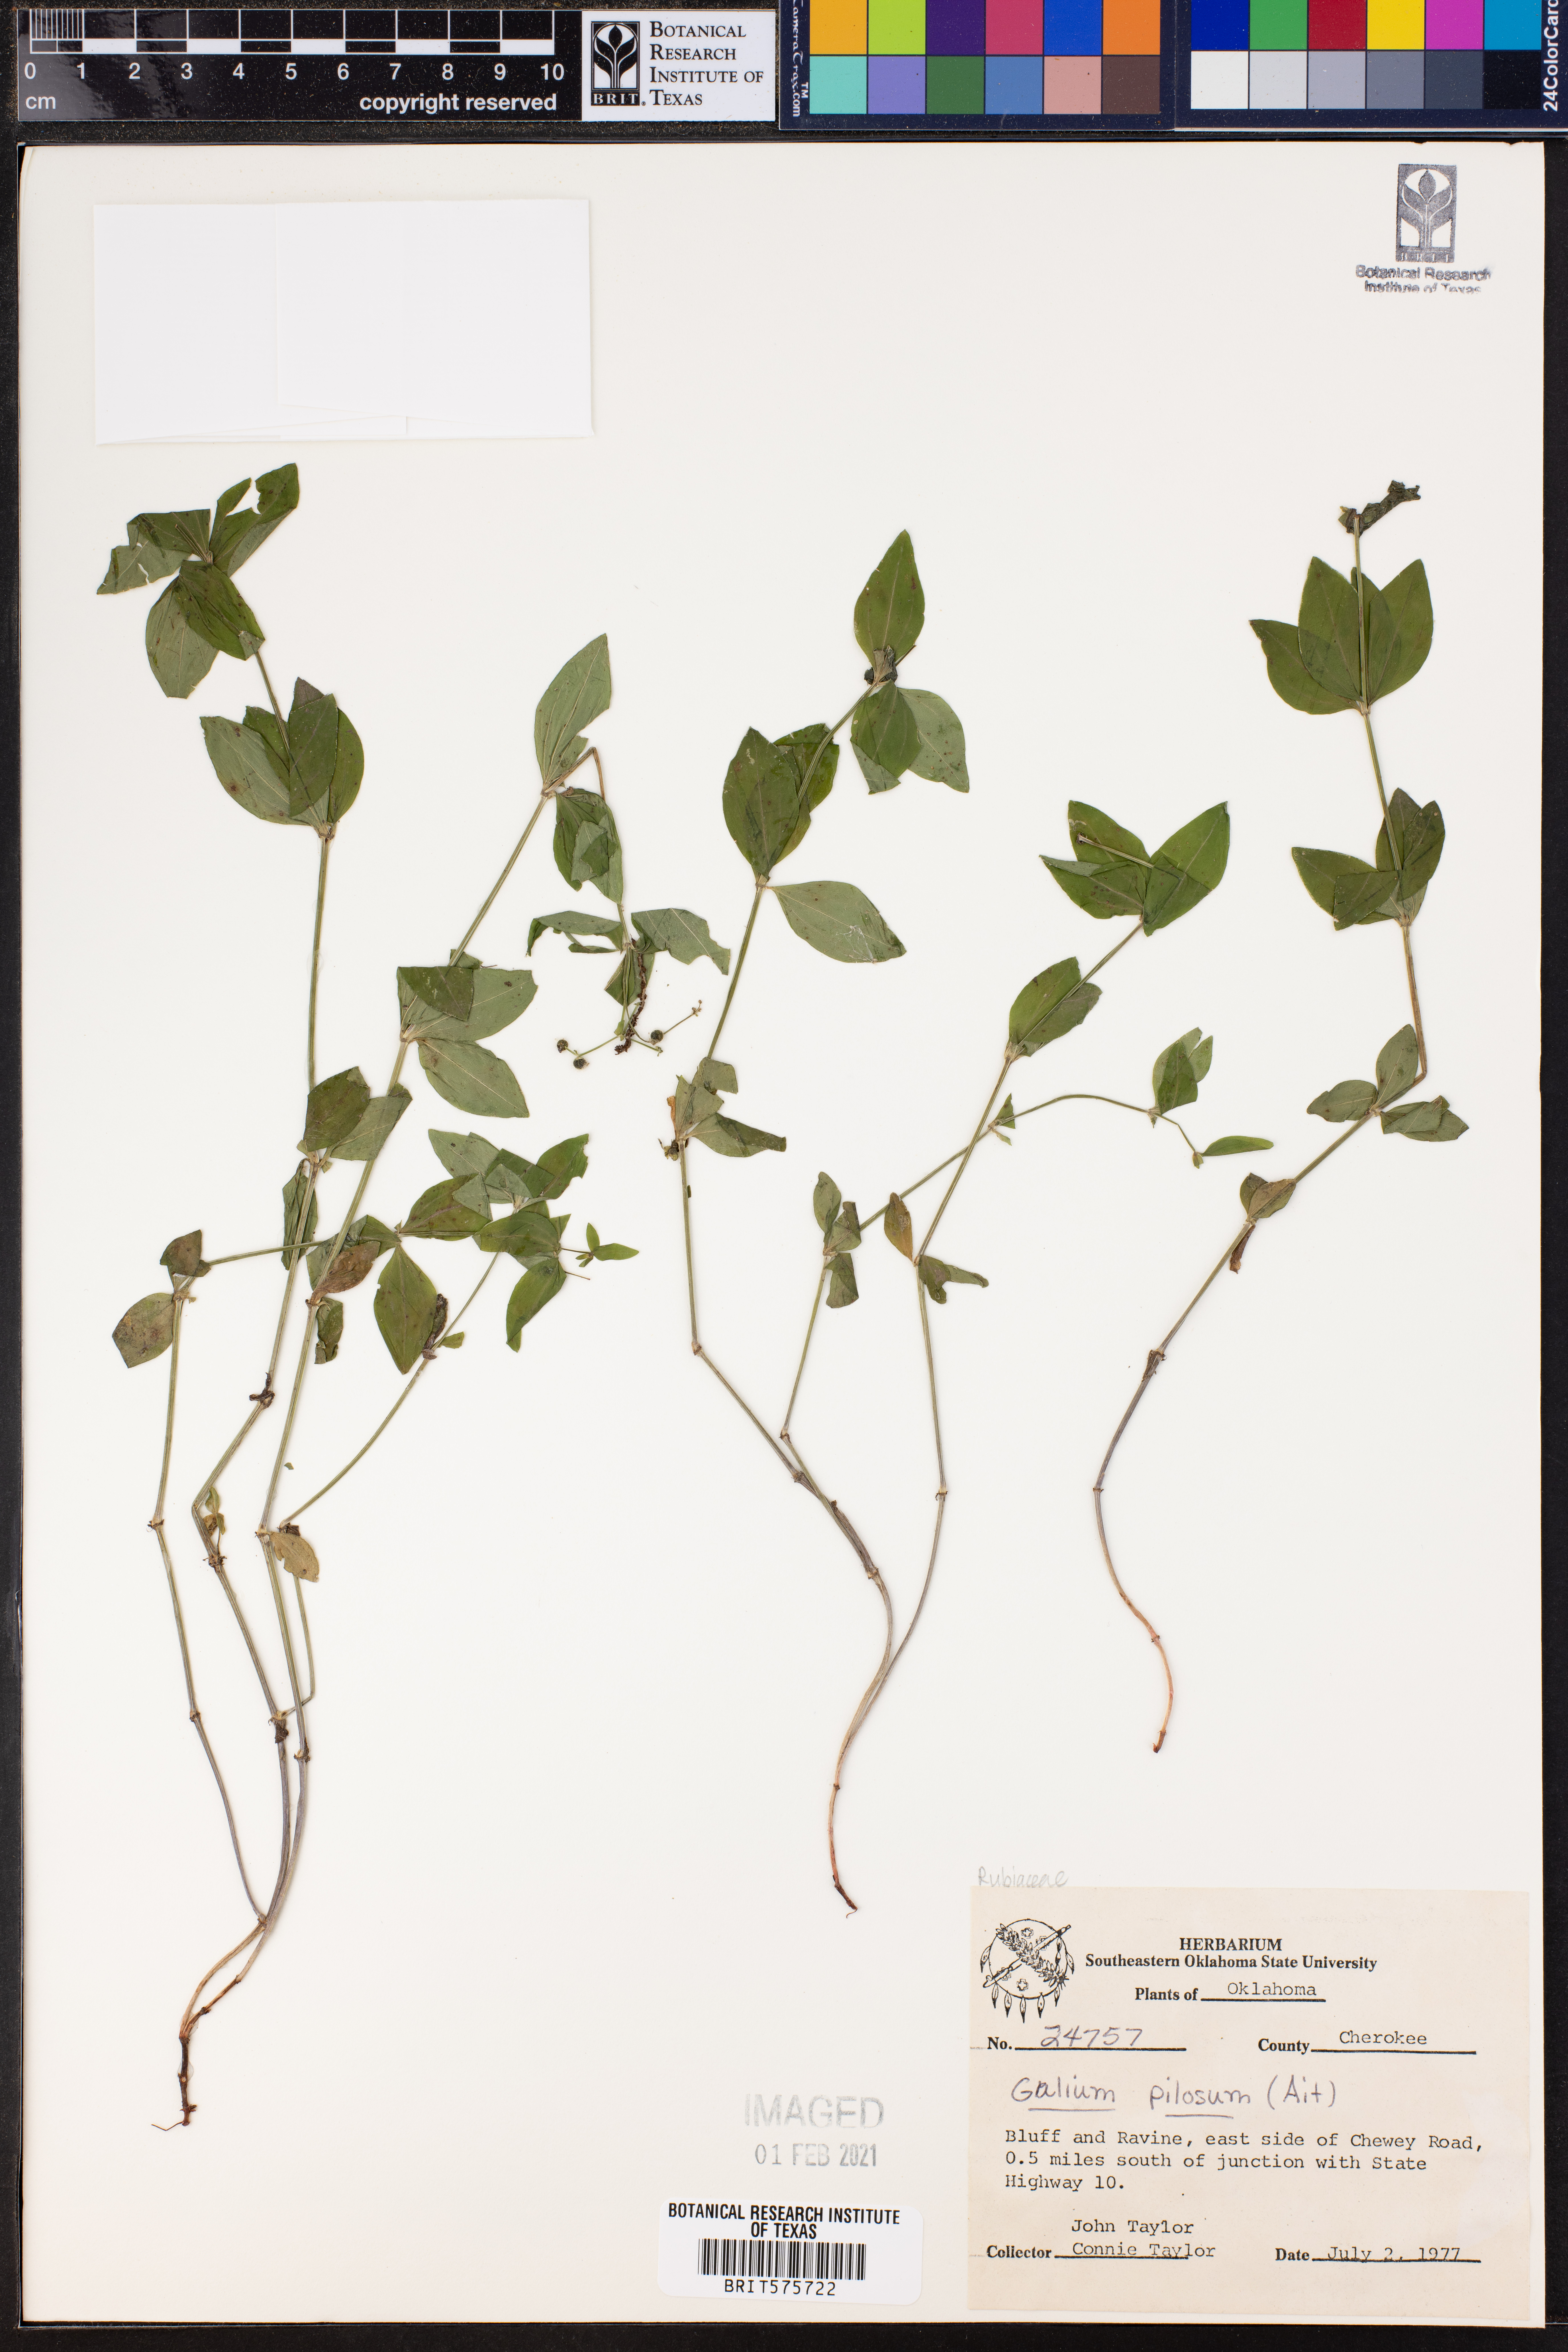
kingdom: Plantae
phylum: Tracheophyta
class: Magnoliopsida
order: Gentianales
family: Rubiaceae
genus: Galium
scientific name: Galium pilosum
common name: Hairy bedstraw
